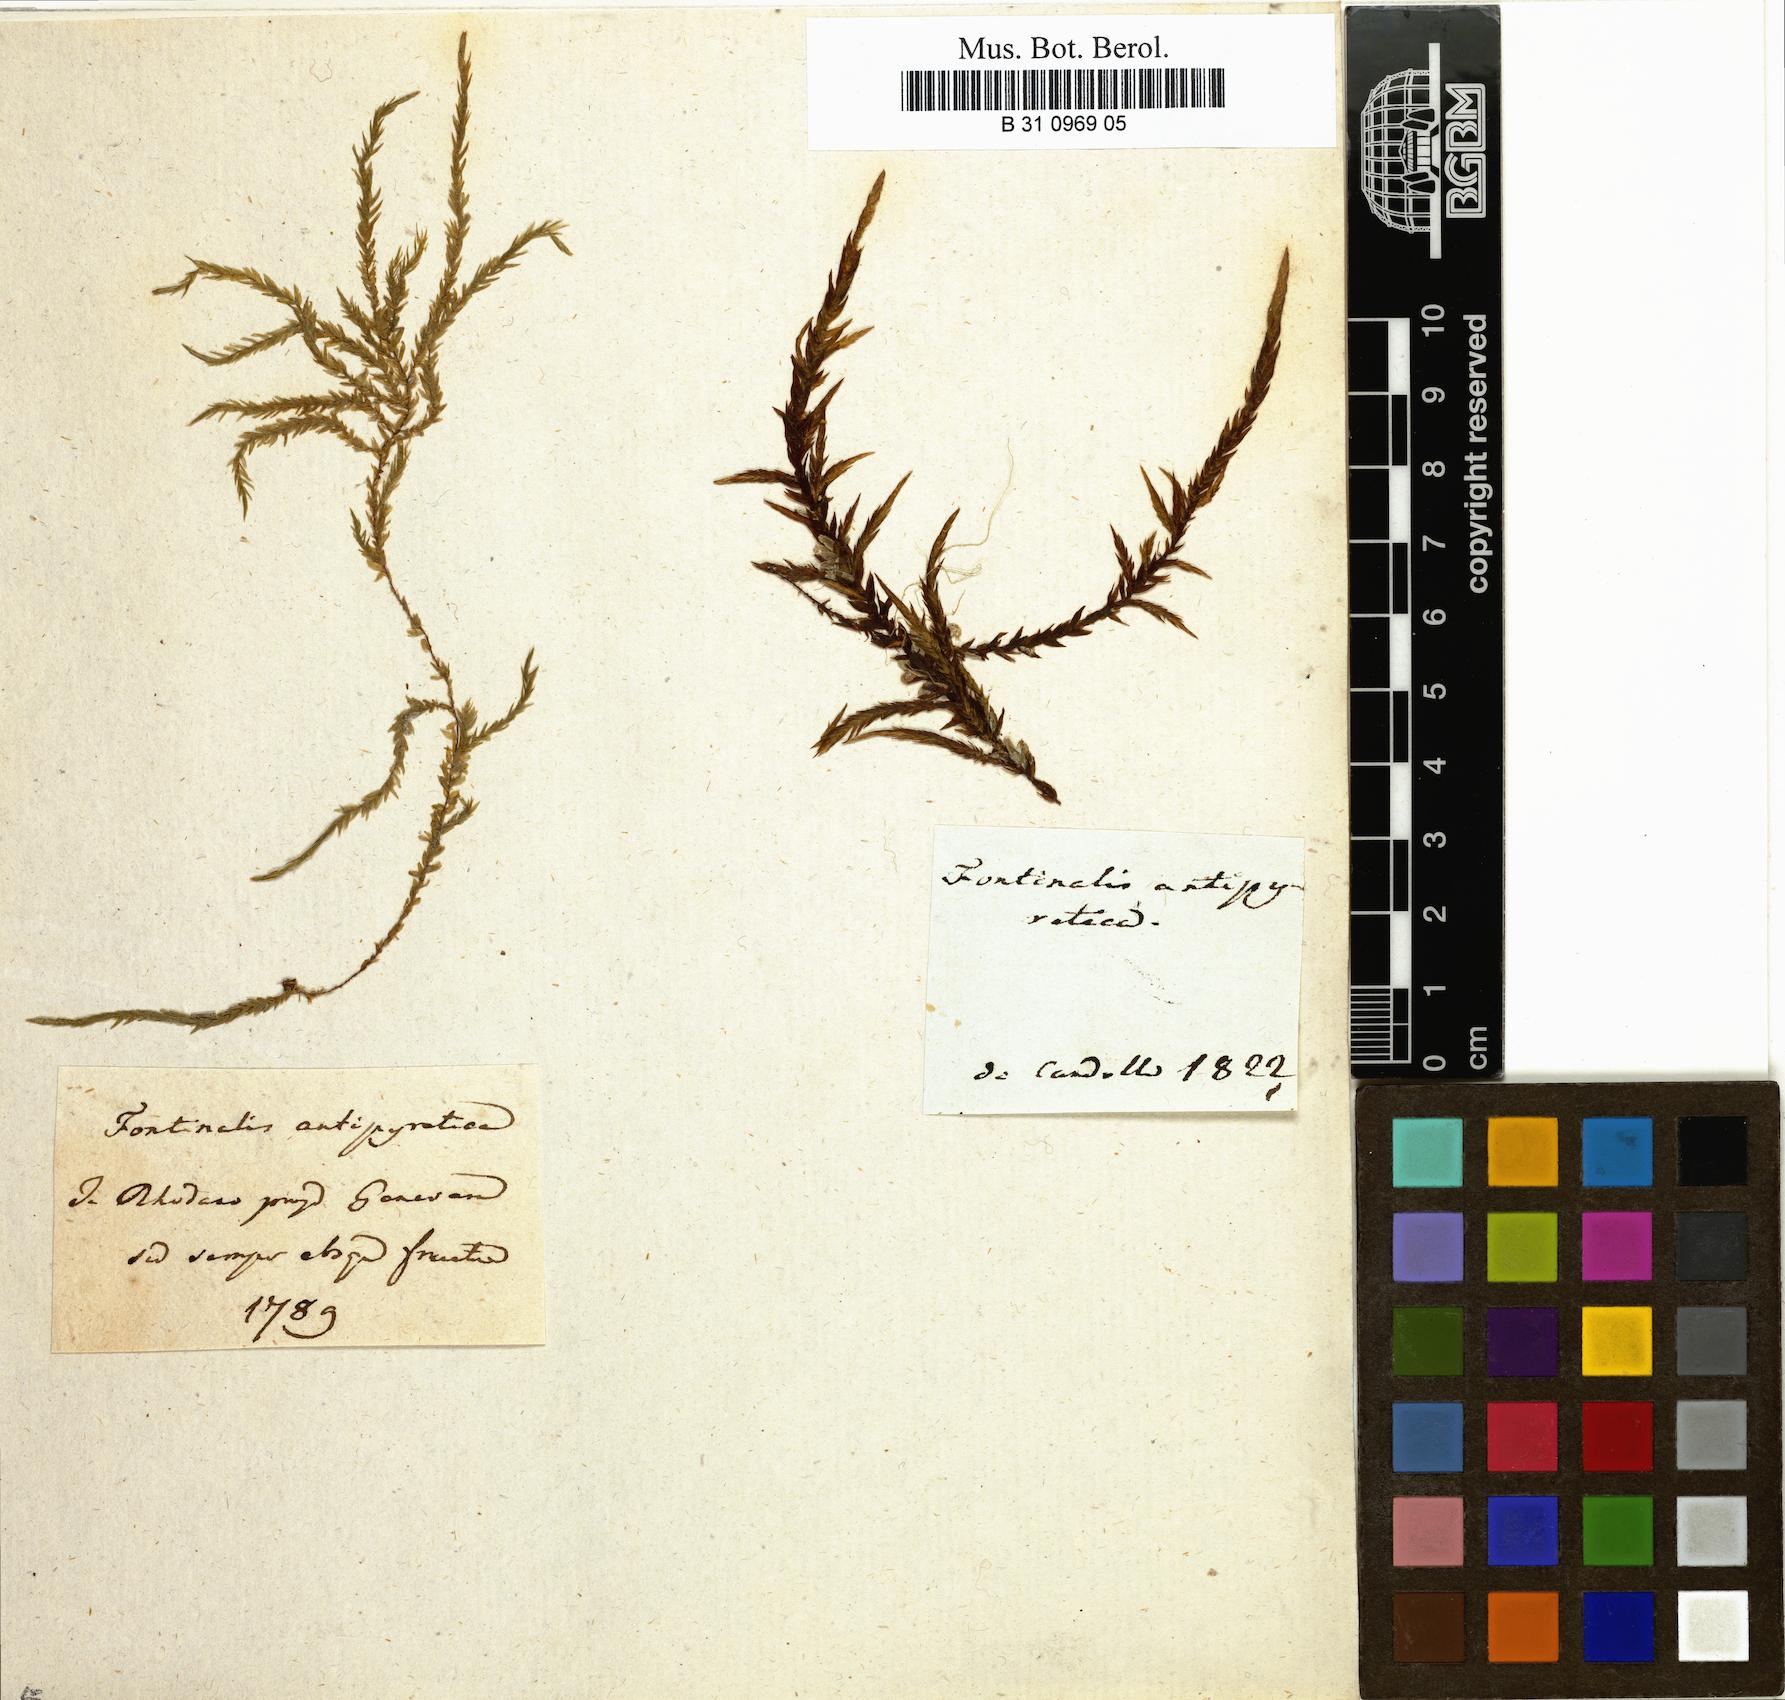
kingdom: Plantae
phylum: Bryophyta
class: Bryopsida
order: Hypnales
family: Fontinalaceae
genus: Fontinalis
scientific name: Fontinalis antipyretica
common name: Greater water-moss
